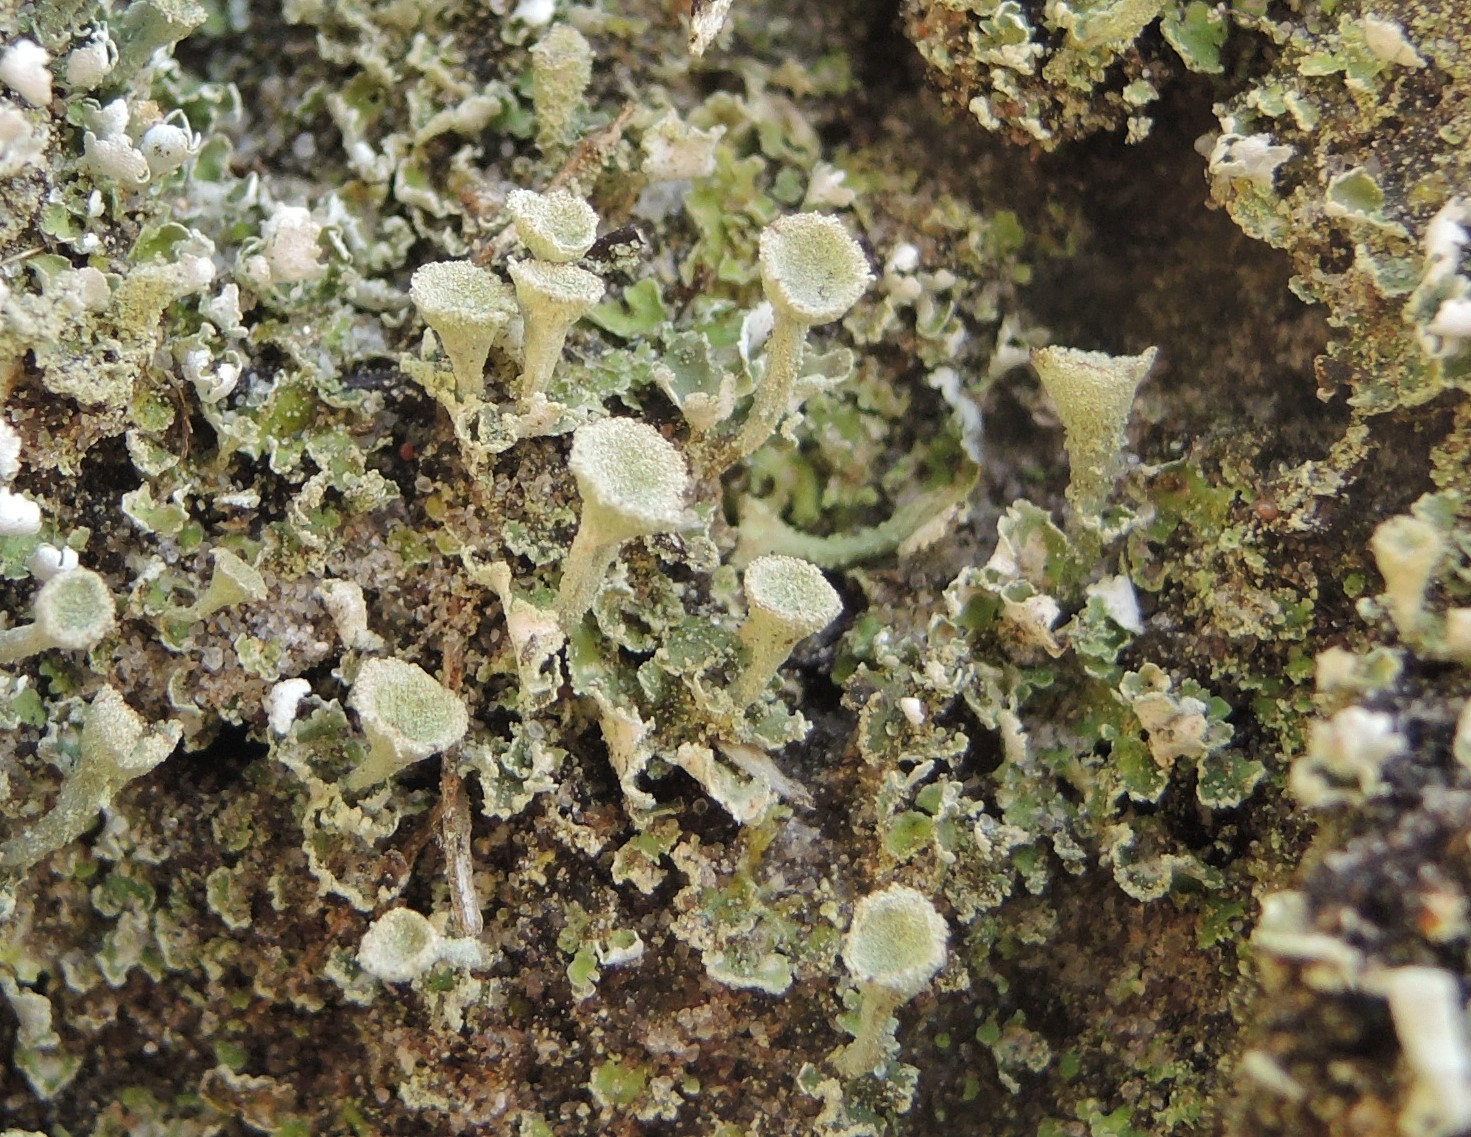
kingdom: Fungi
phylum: Ascomycota
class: Lecanoromycetes
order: Lecanorales
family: Cladoniaceae
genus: Cladonia
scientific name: Cladonia humilis
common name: lav bægerlav
